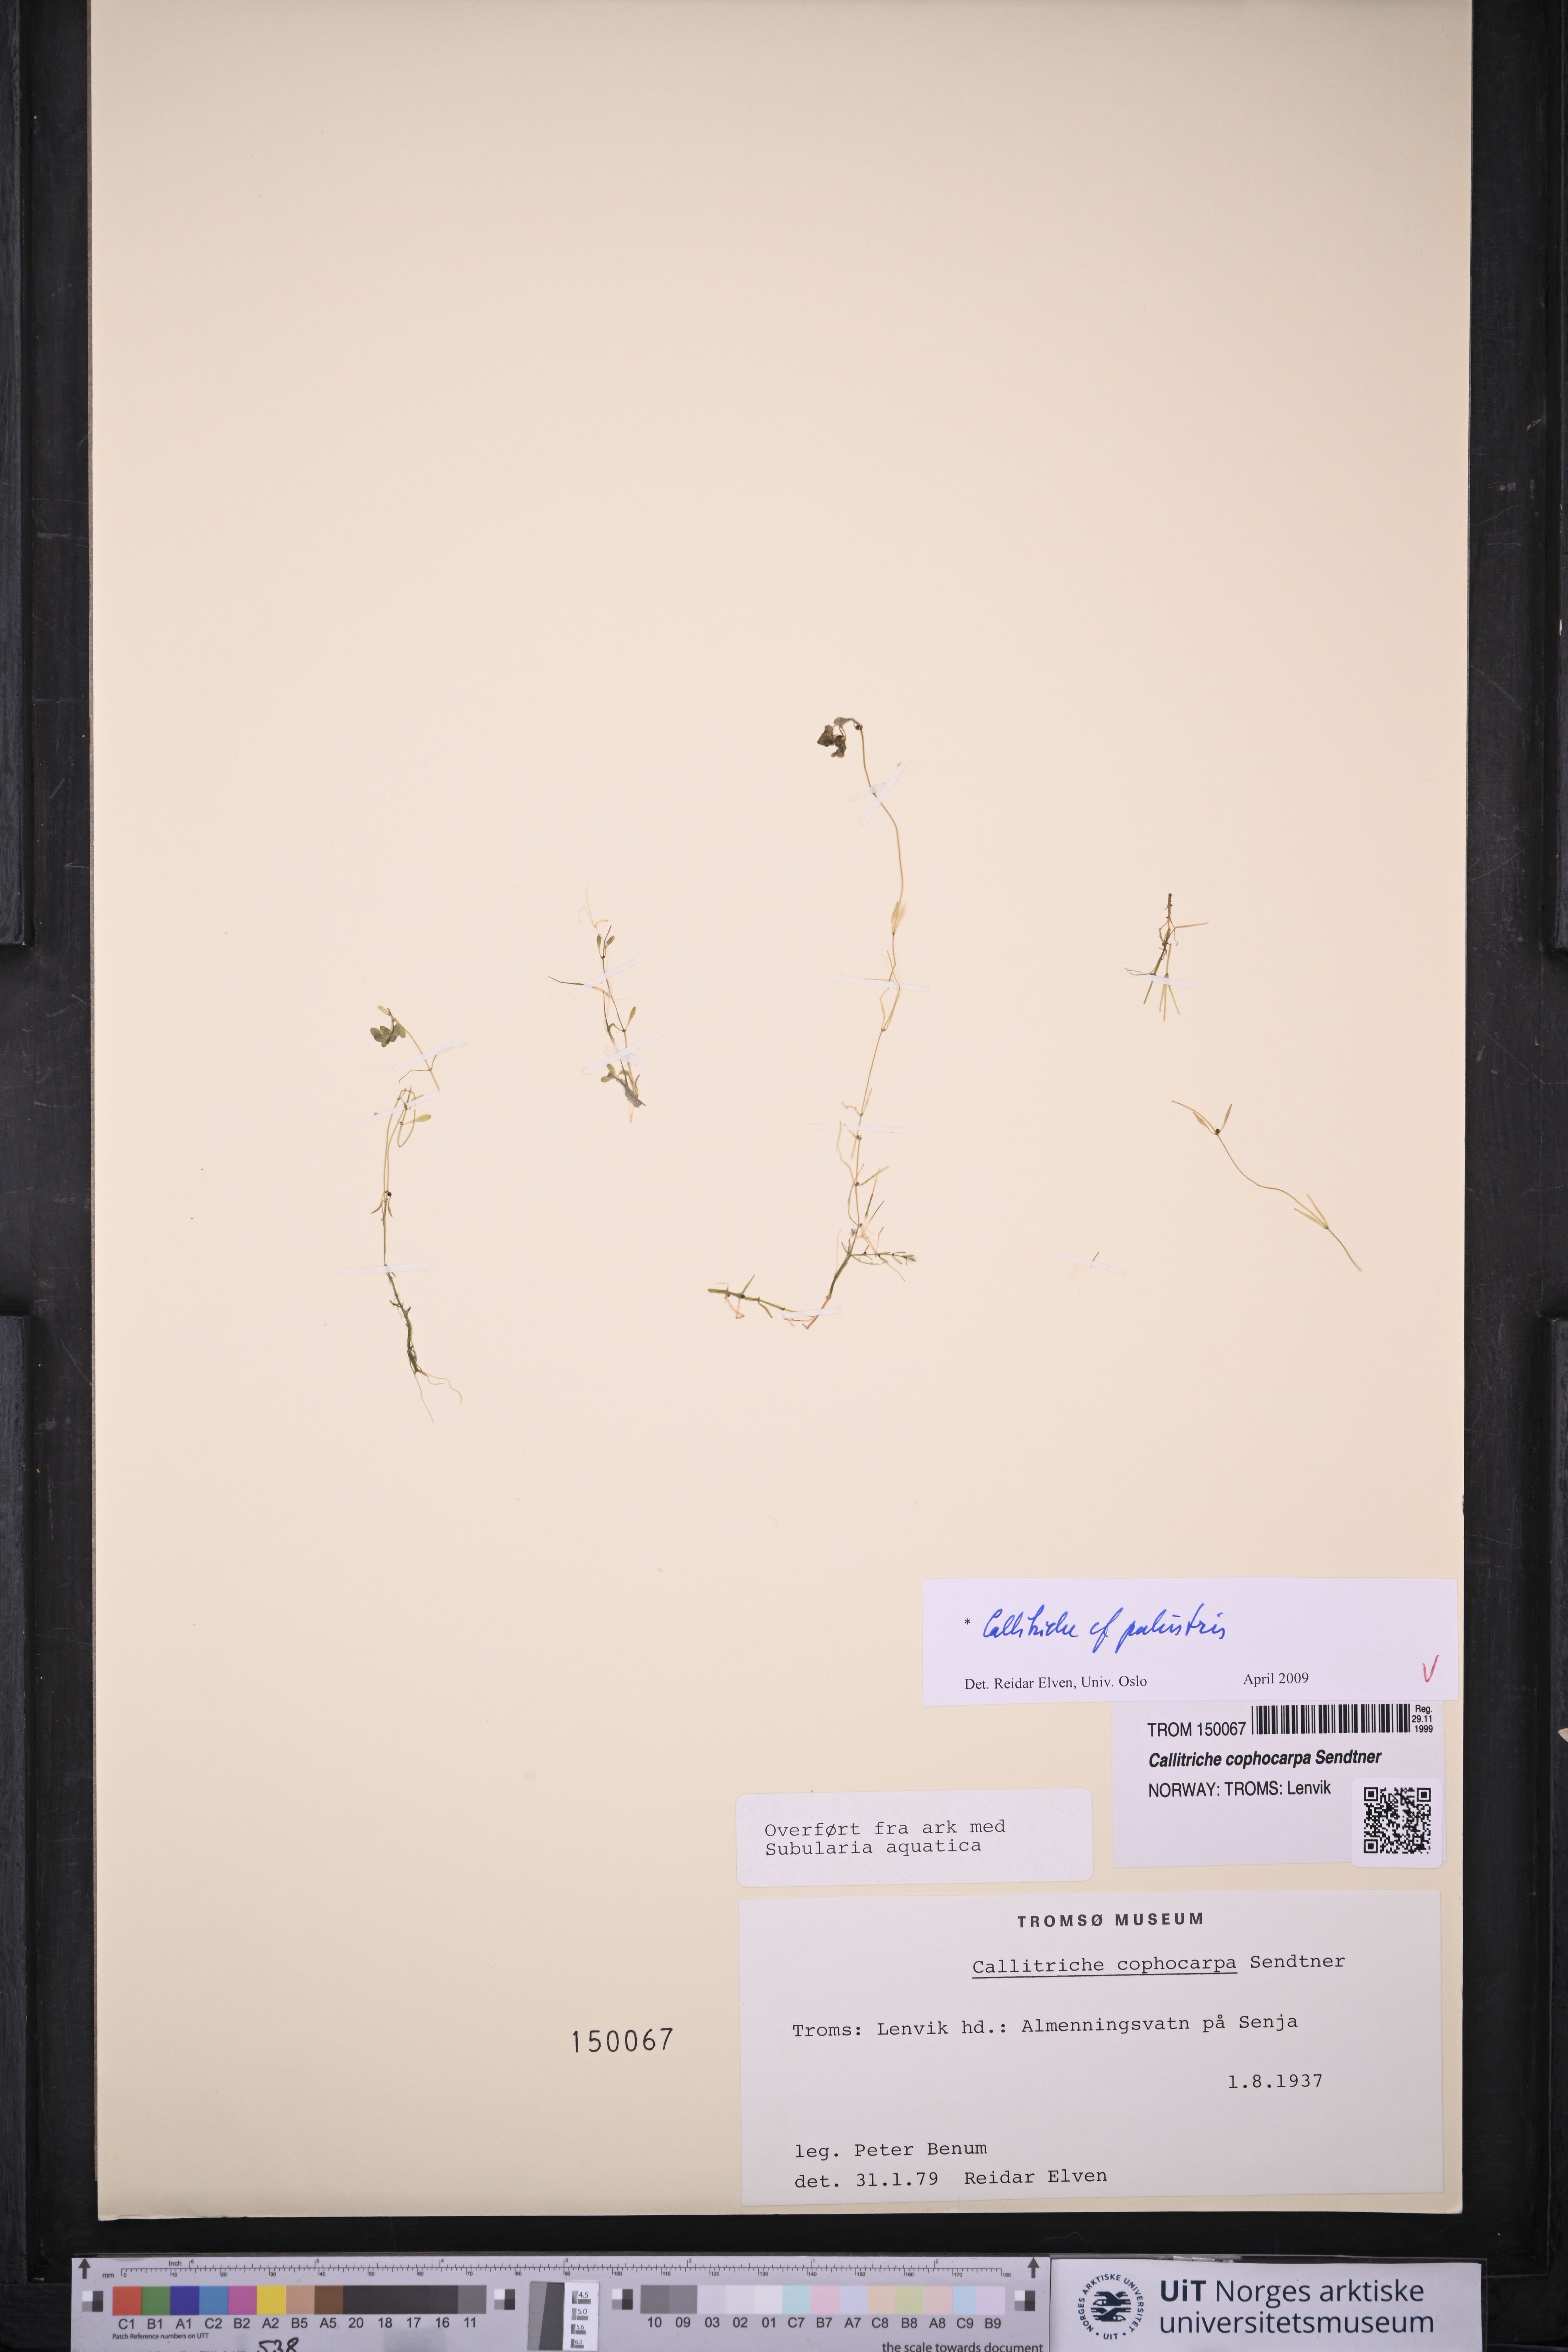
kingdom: Plantae
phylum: Tracheophyta
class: Magnoliopsida
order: Lamiales
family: Plantaginaceae
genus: Callitriche
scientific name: Callitriche palustris
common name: Spring water-starwort
